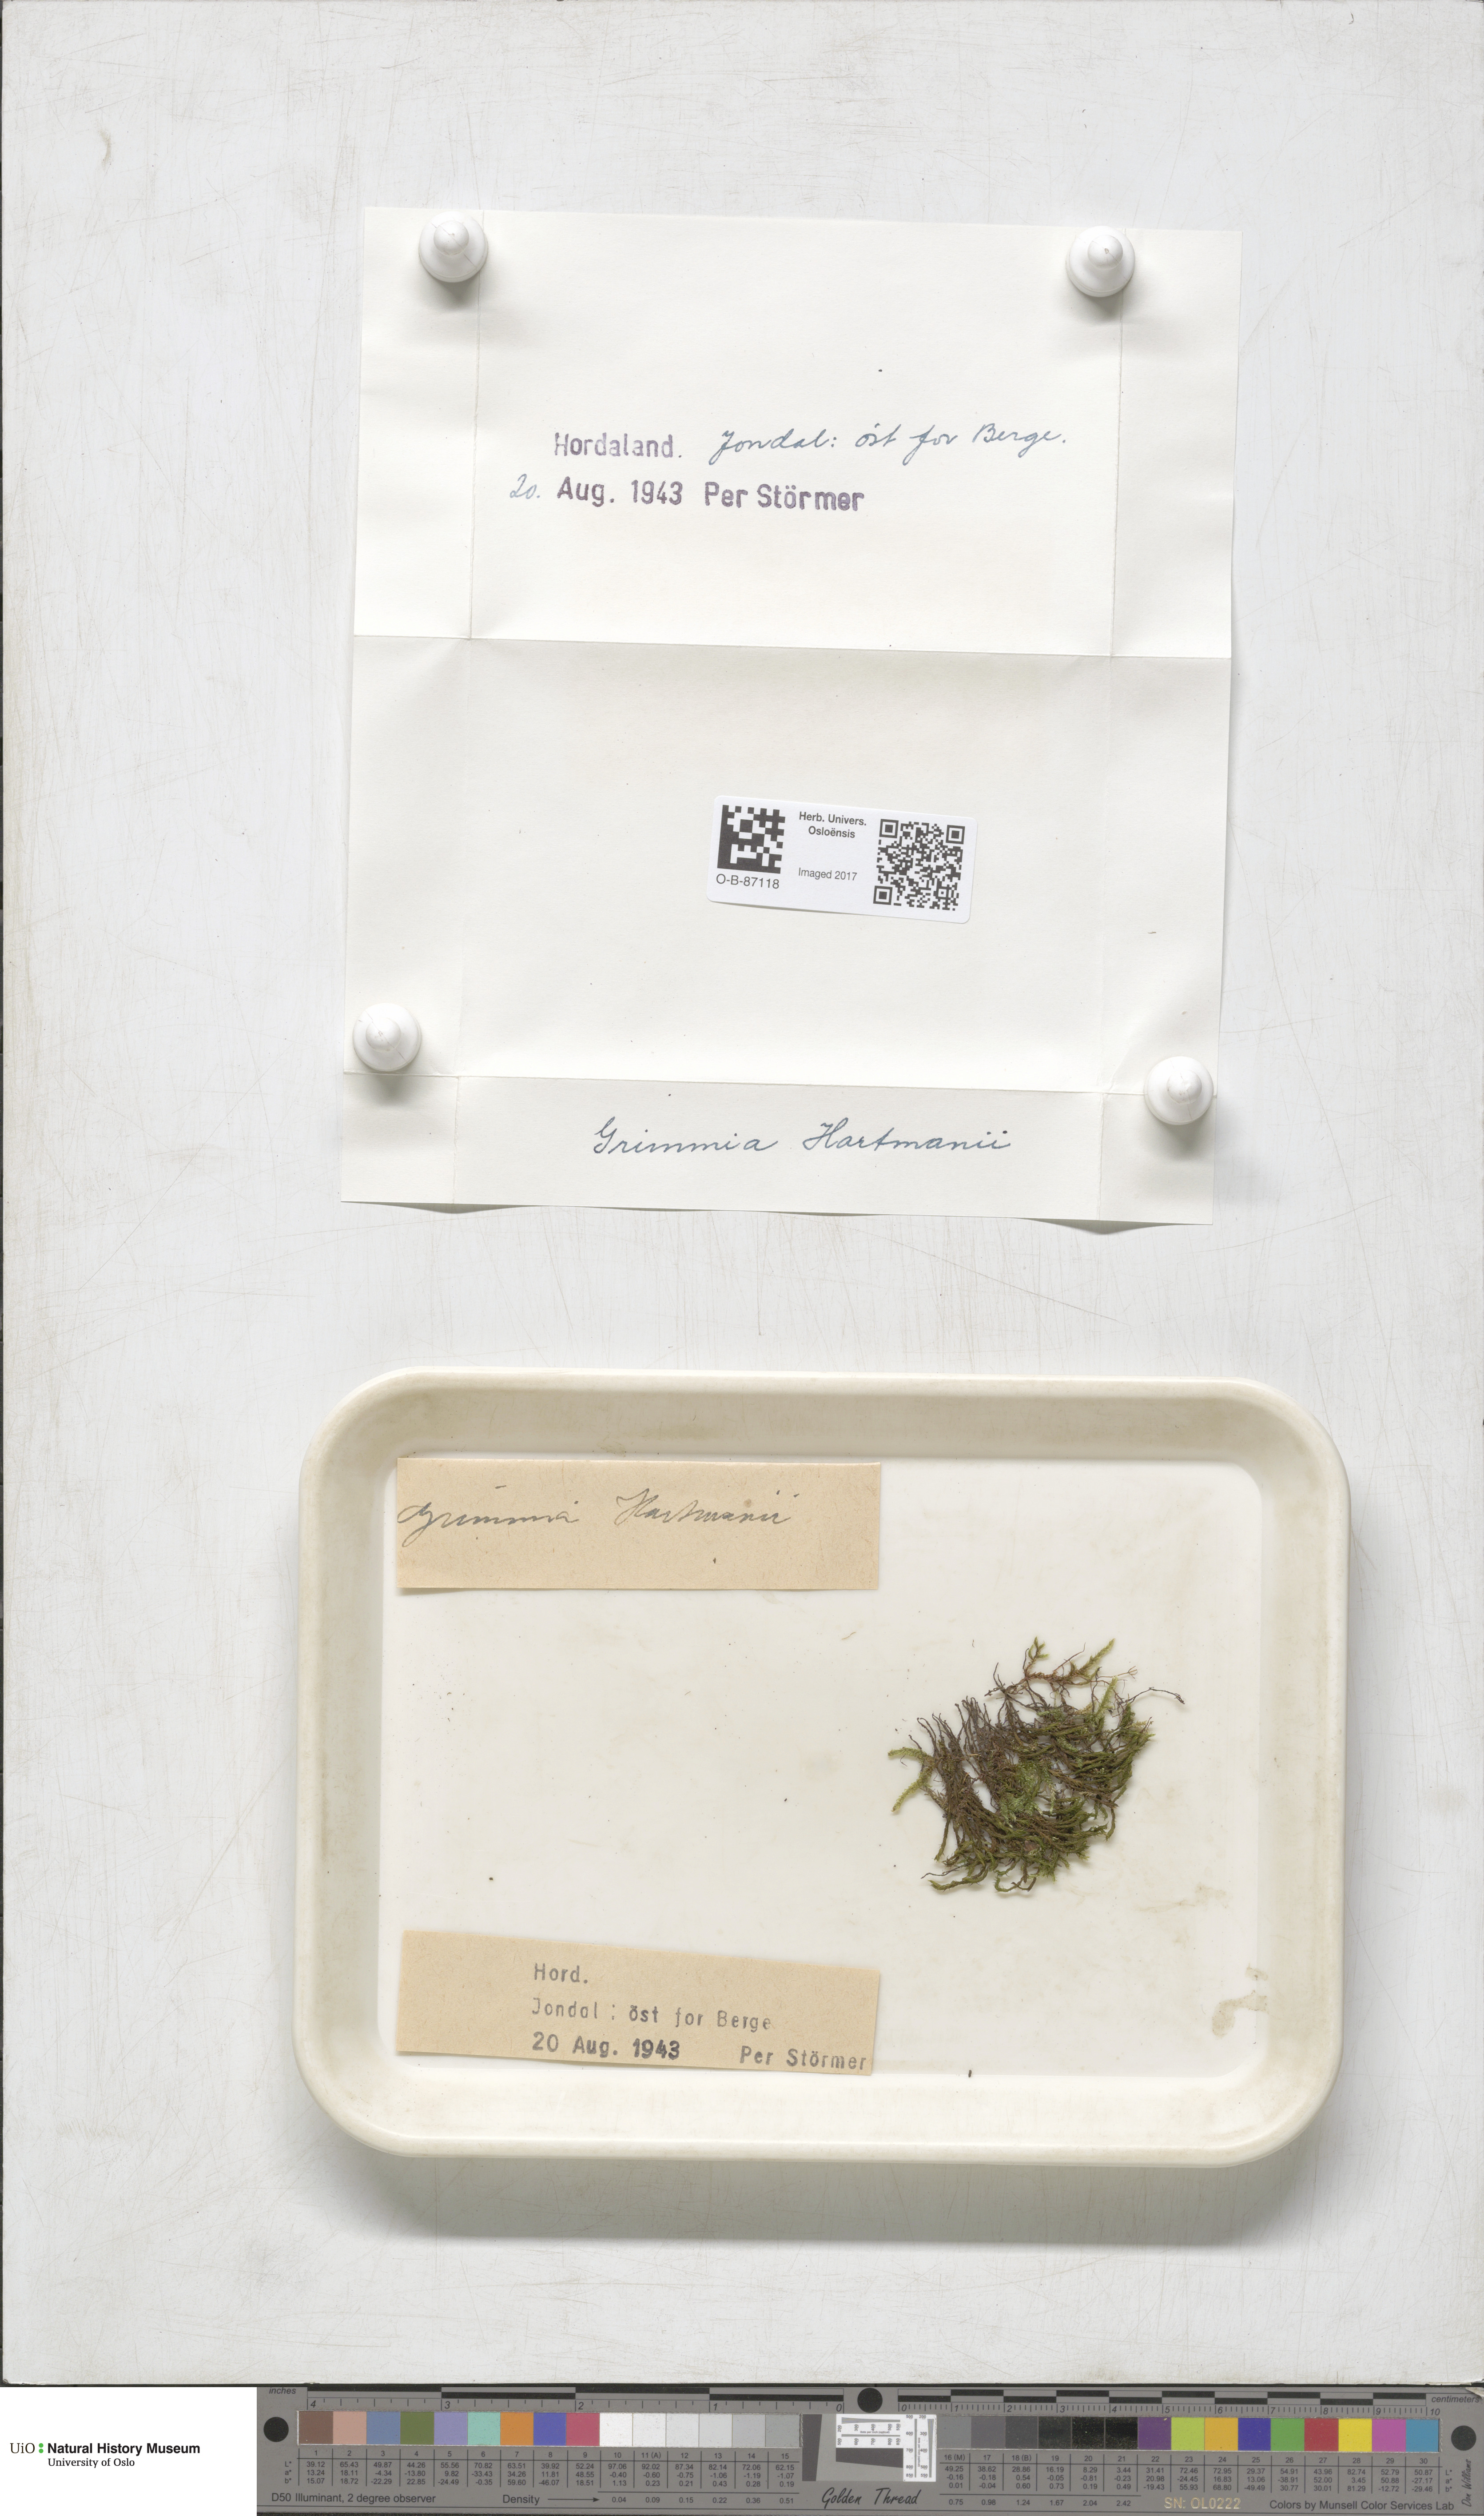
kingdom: Plantae
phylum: Bryophyta
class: Bryopsida
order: Grimmiales
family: Grimmiaceae
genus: Grimmia
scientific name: Grimmia hartmanii
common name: Hartman's grimmia
